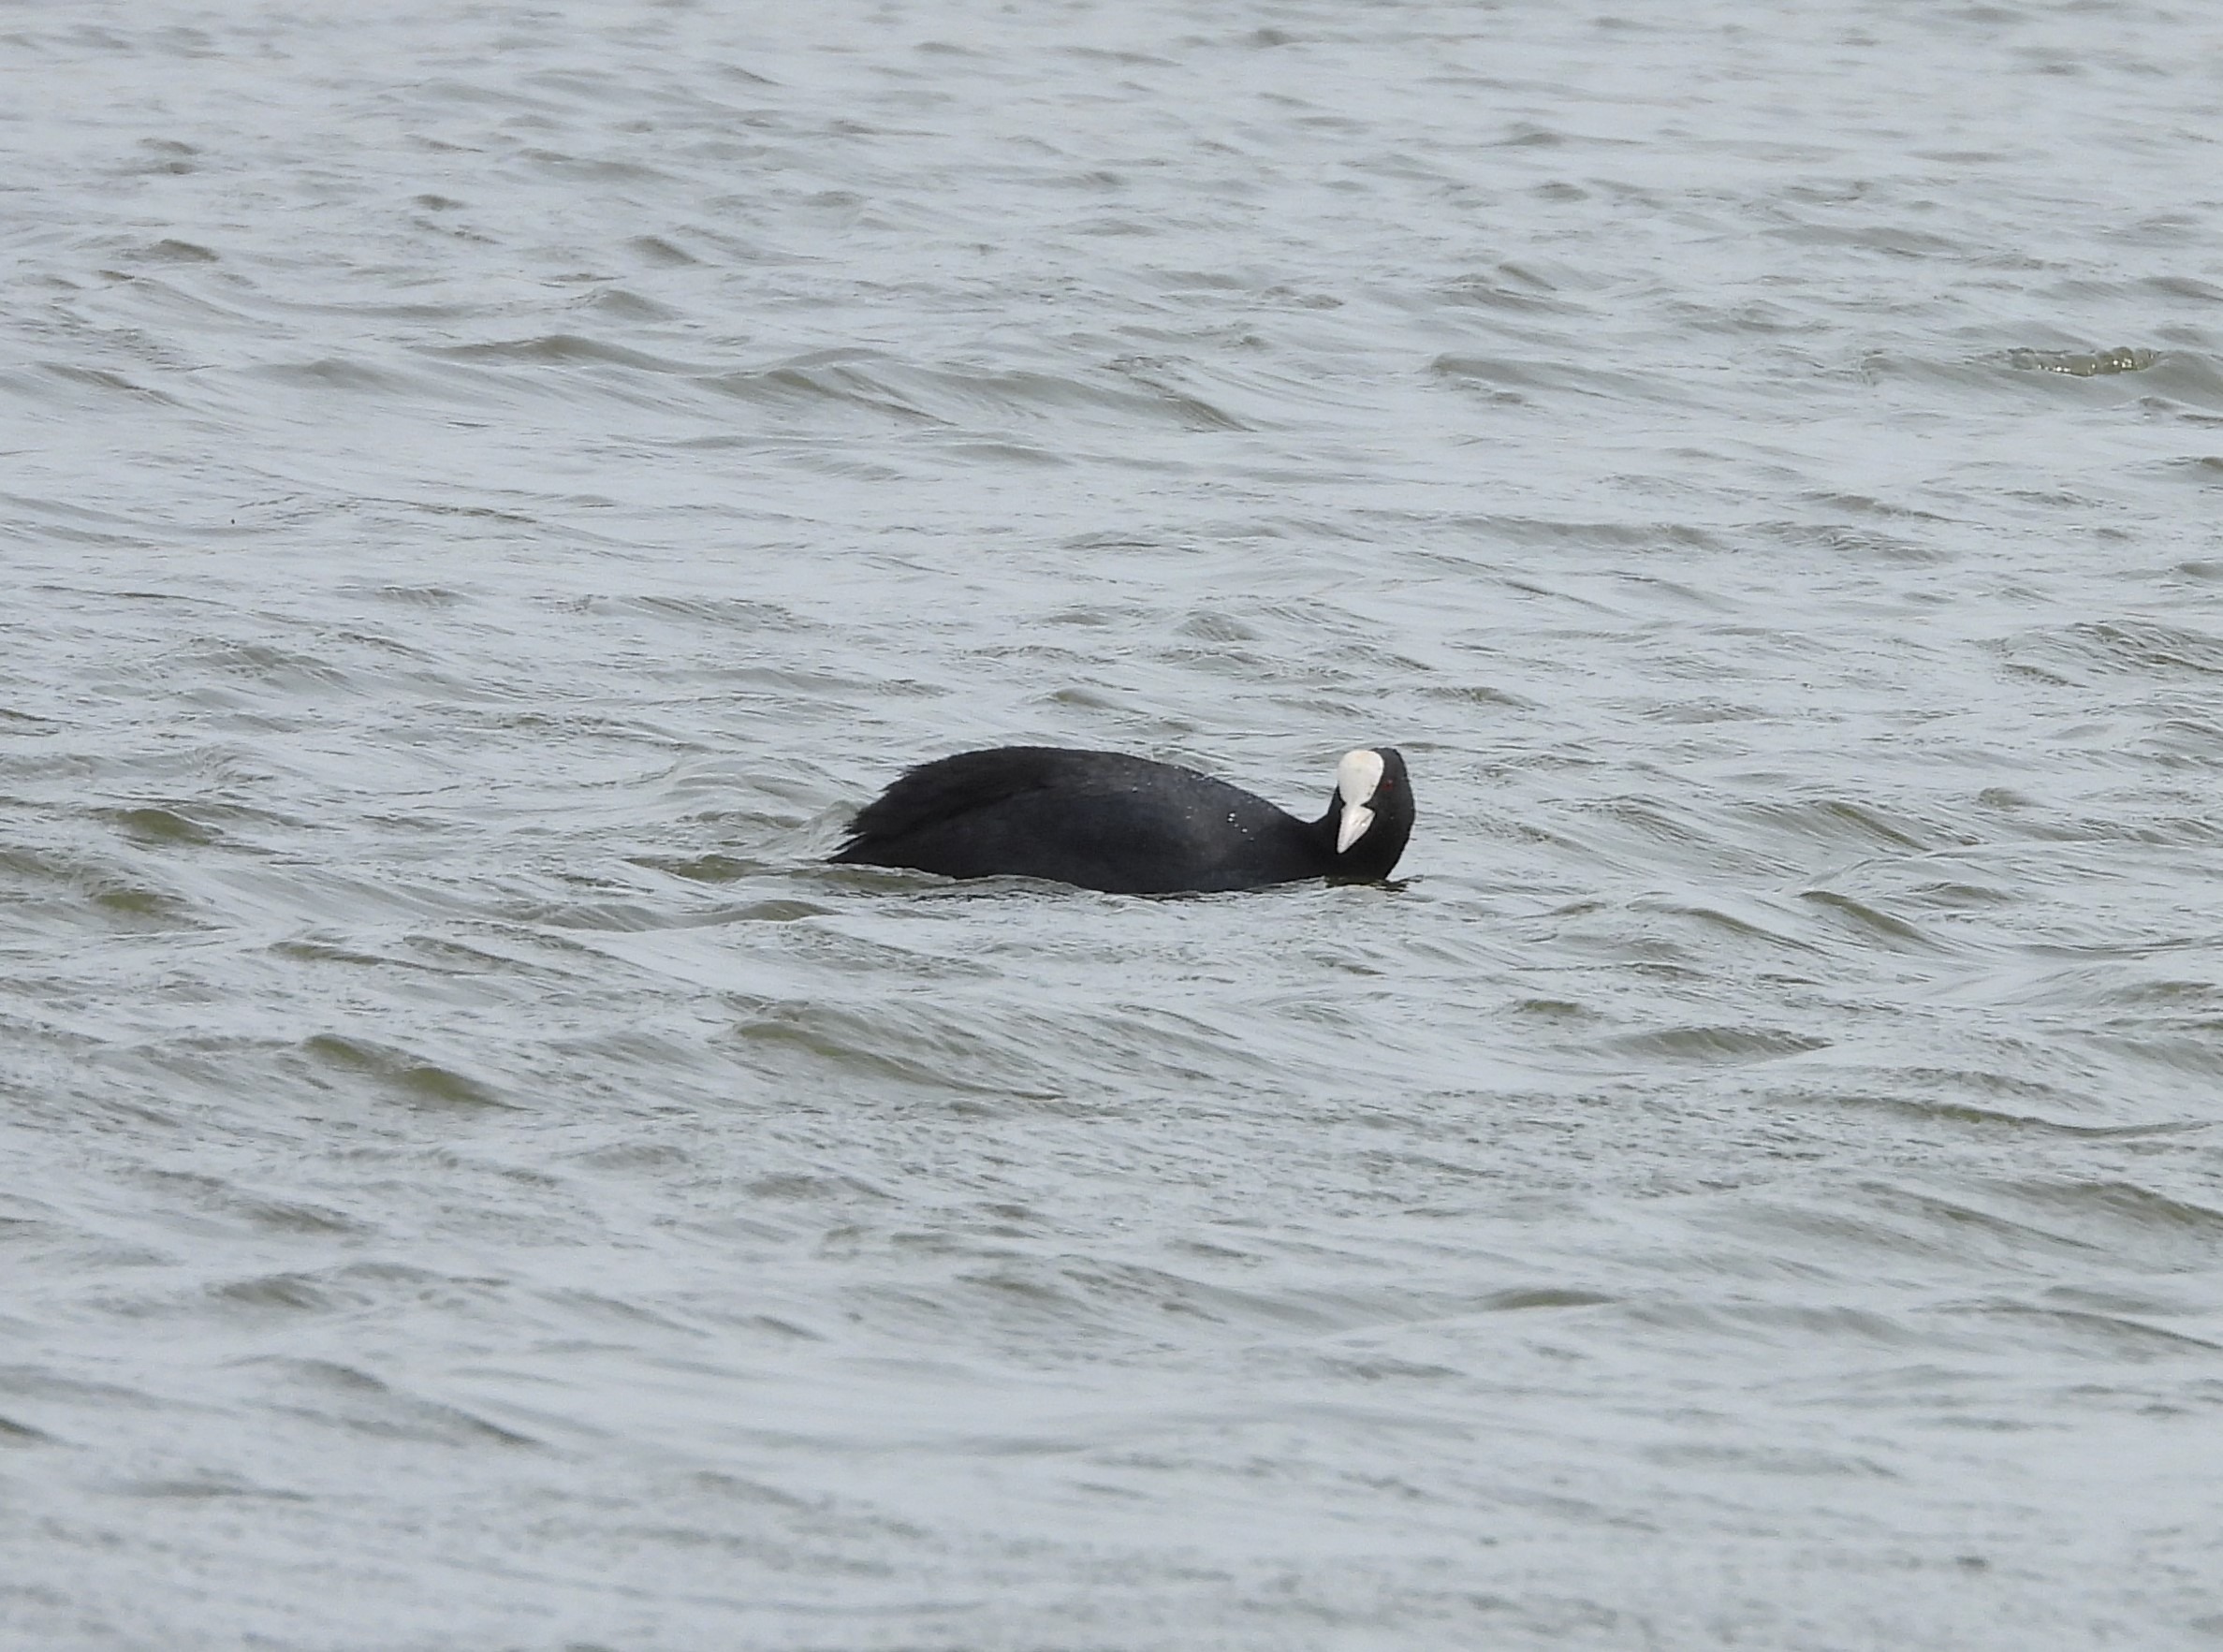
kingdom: Animalia
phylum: Chordata
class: Aves
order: Gruiformes
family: Rallidae
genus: Fulica
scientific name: Fulica atra
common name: Blishøne
